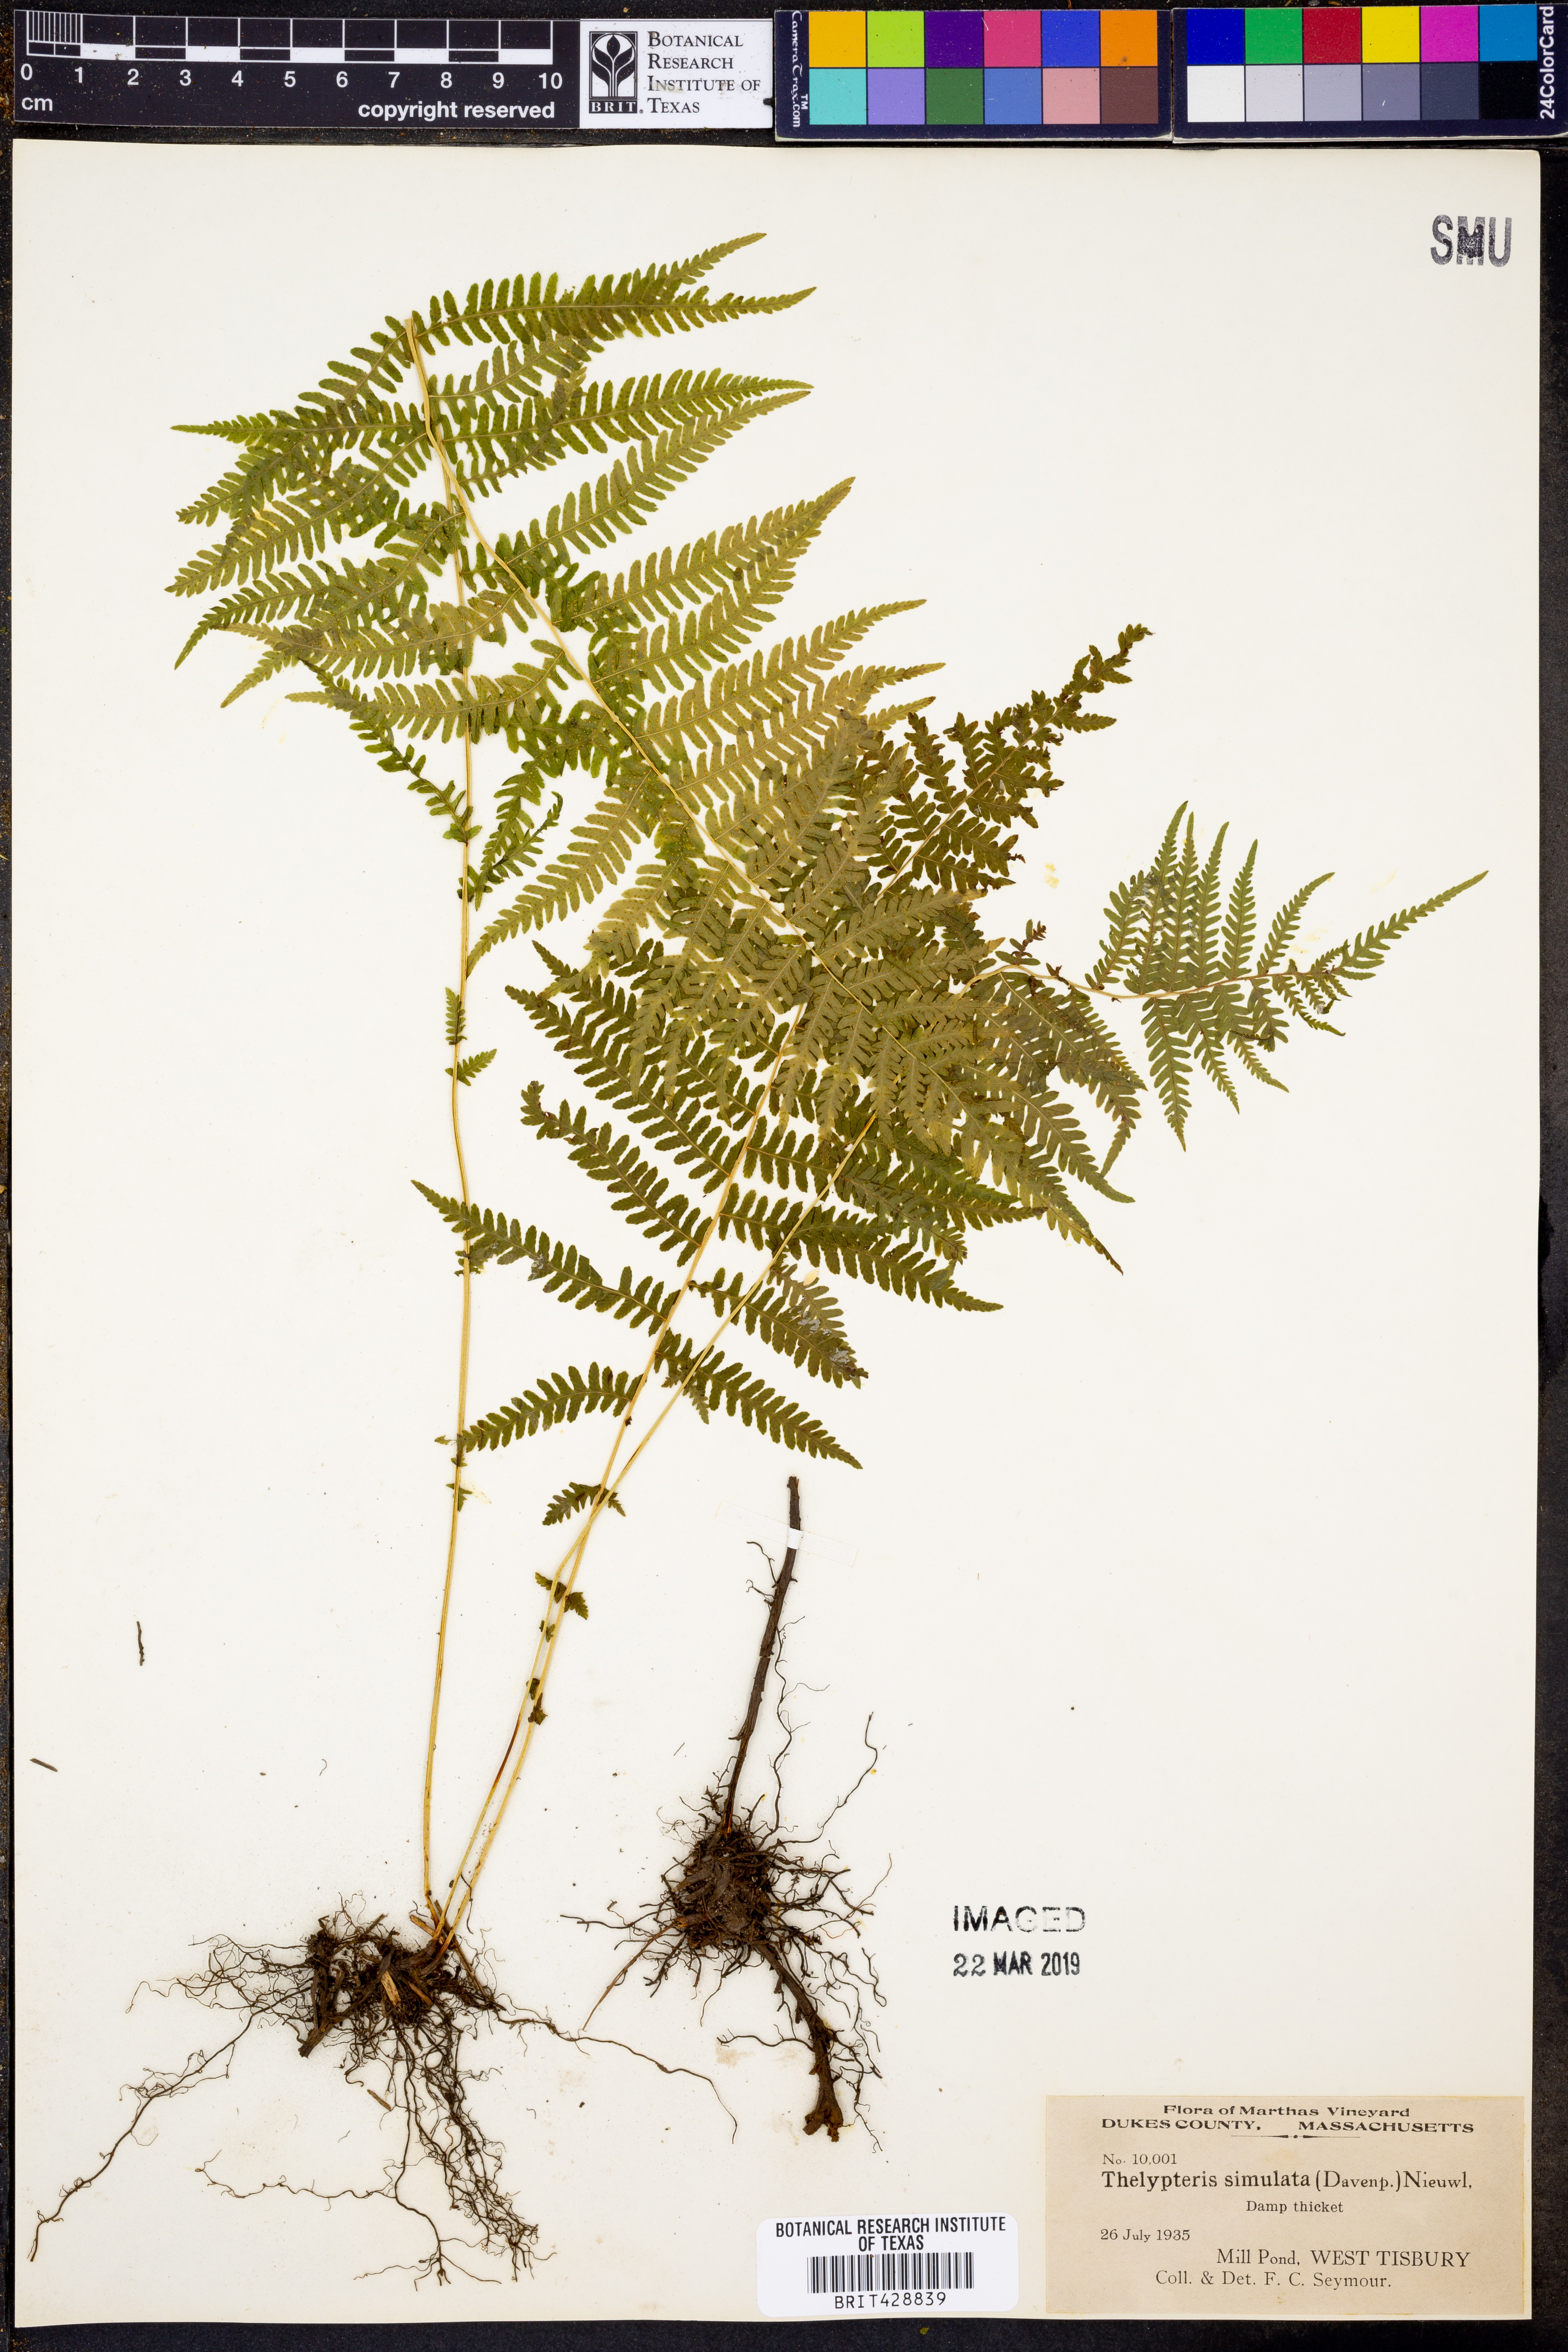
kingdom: Plantae
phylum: Tracheophyta
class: Polypodiopsida
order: Polypodiales
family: Thelypteridaceae
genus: Coryphopteris
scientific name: Coryphopteris simulata
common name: Bog fern
